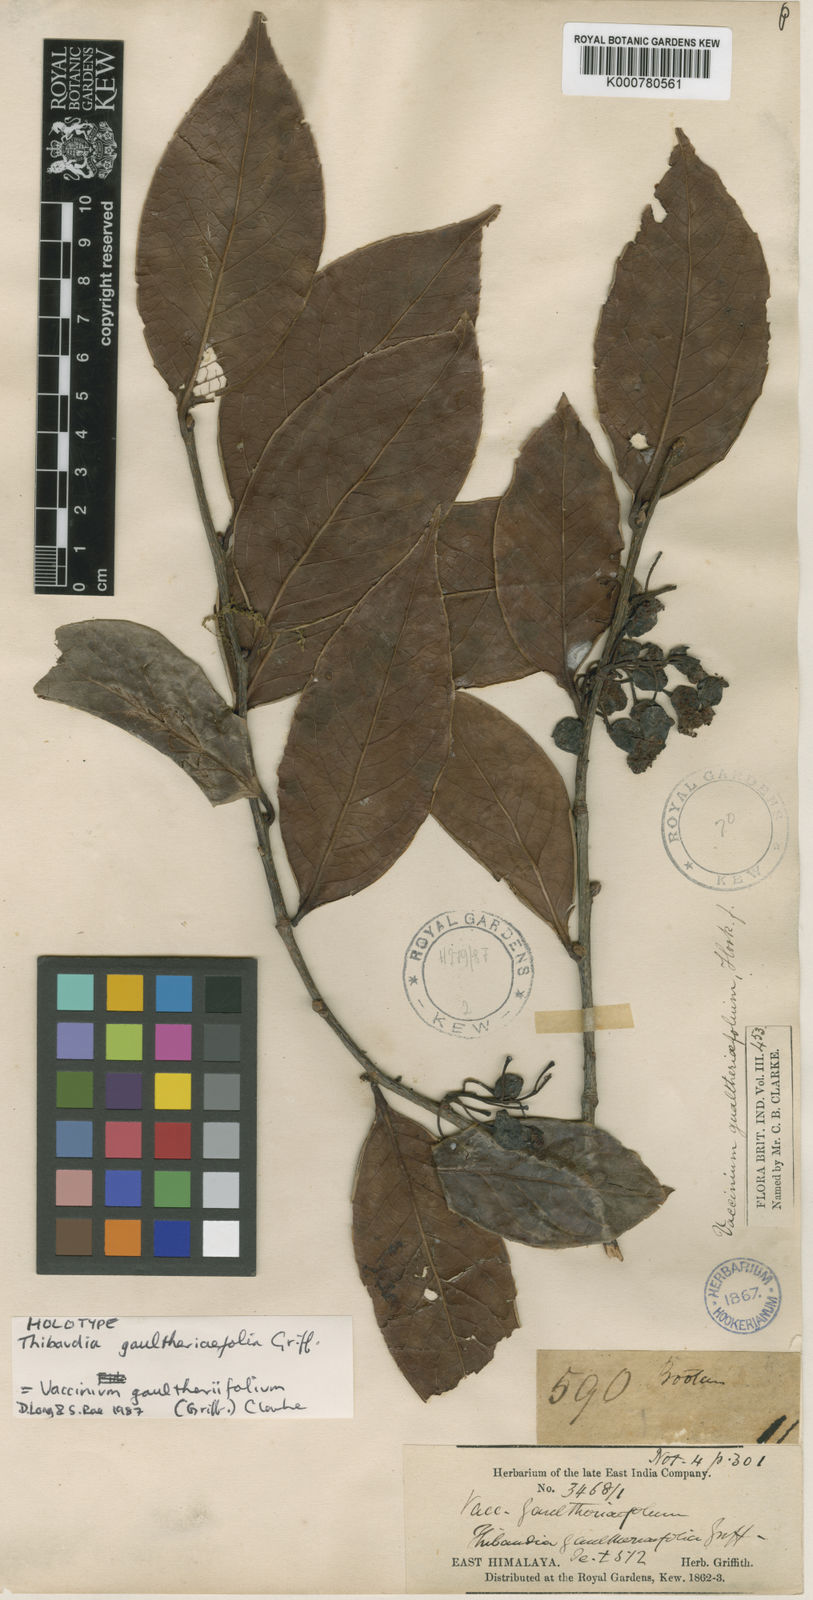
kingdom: Plantae
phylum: Tracheophyta
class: Magnoliopsida
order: Ericales
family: Ericaceae
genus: Vaccinium
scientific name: Vaccinium gaultheriifolium
